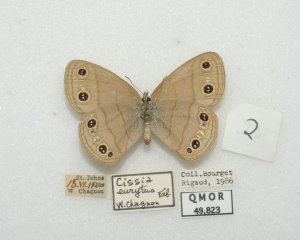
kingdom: Animalia
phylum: Arthropoda
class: Insecta
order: Lepidoptera
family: Nymphalidae
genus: Euptychia
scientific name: Euptychia cymela
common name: Little Wood Satyr
